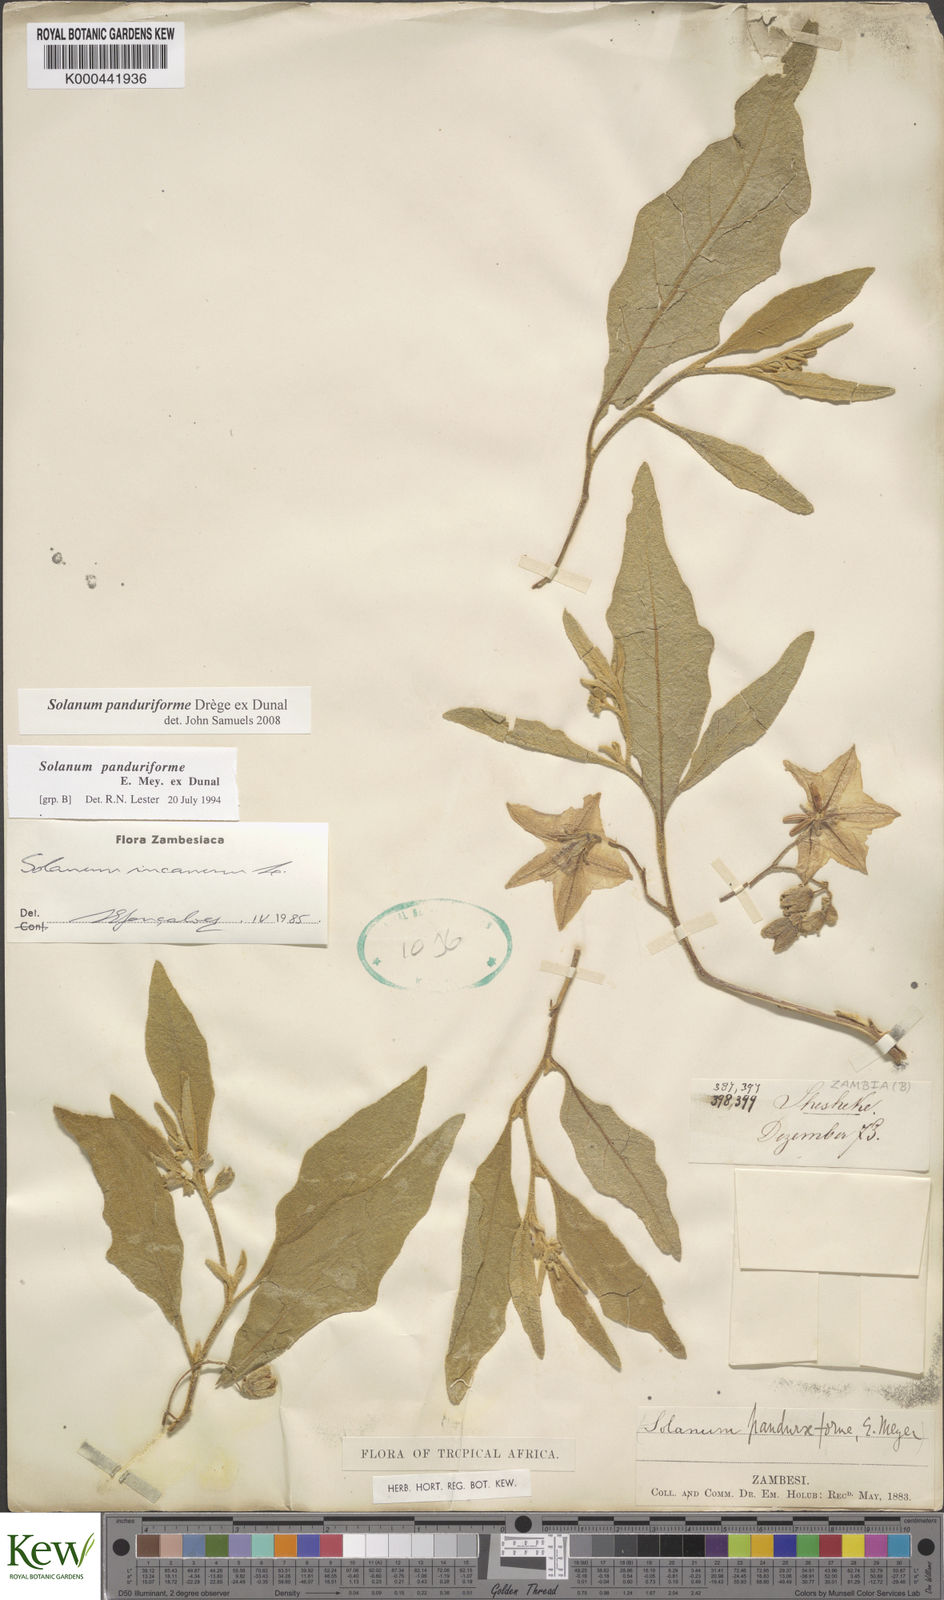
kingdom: Plantae
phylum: Tracheophyta
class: Magnoliopsida
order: Solanales
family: Solanaceae
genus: Solanum
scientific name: Solanum campylacanthum
